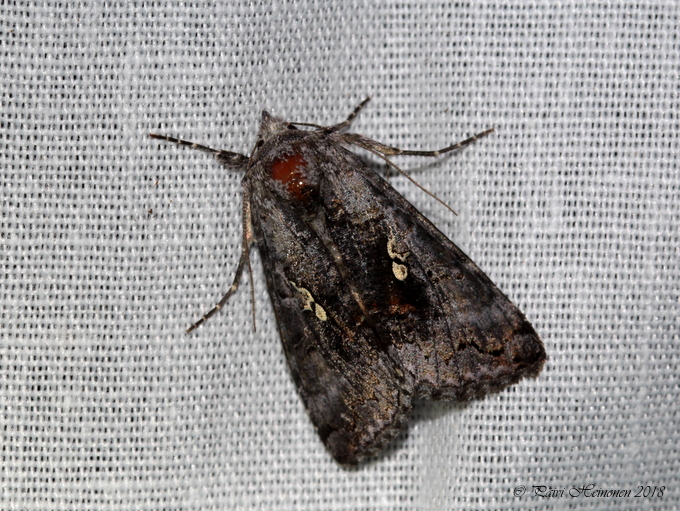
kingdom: Animalia
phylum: Arthropoda
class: Insecta
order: Lepidoptera
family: Noctuidae
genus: Syngrapha
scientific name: Syngrapha interrogationis
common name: Scarce silver y
